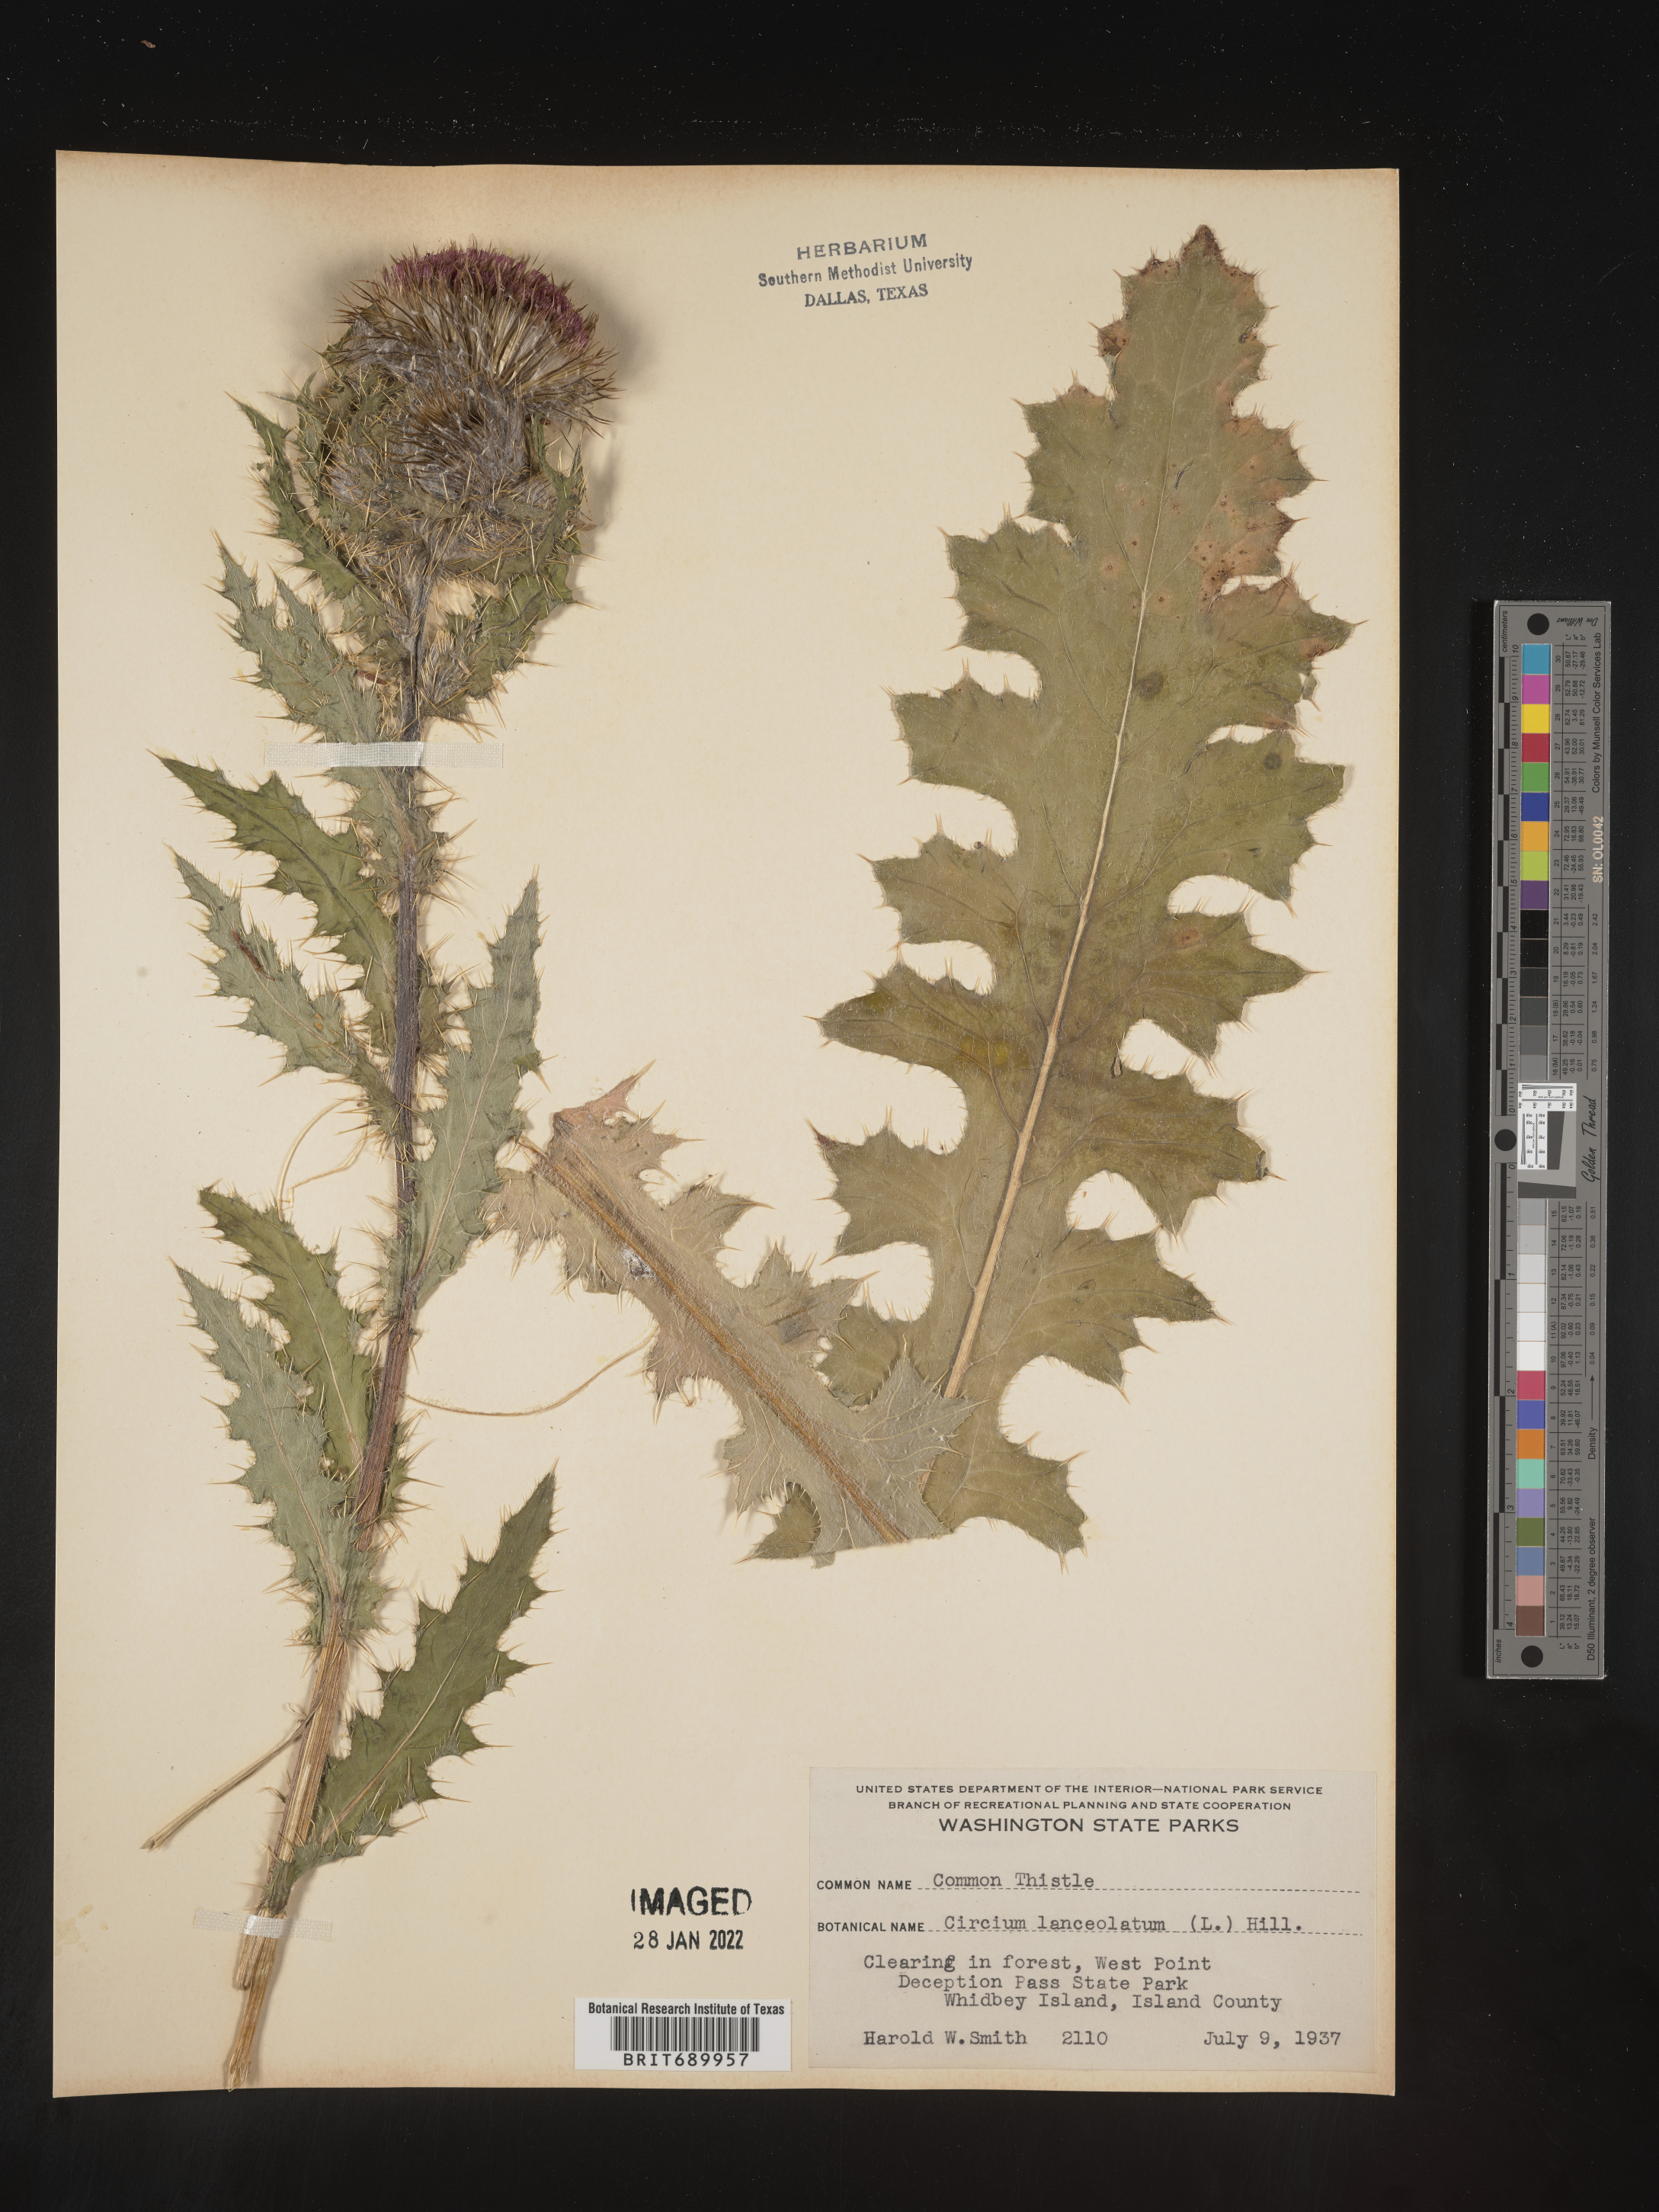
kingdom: Plantae
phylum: Tracheophyta
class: Magnoliopsida
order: Asterales
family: Asteraceae
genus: Cirsium
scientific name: Cirsium vulgare
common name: Bull thistle
